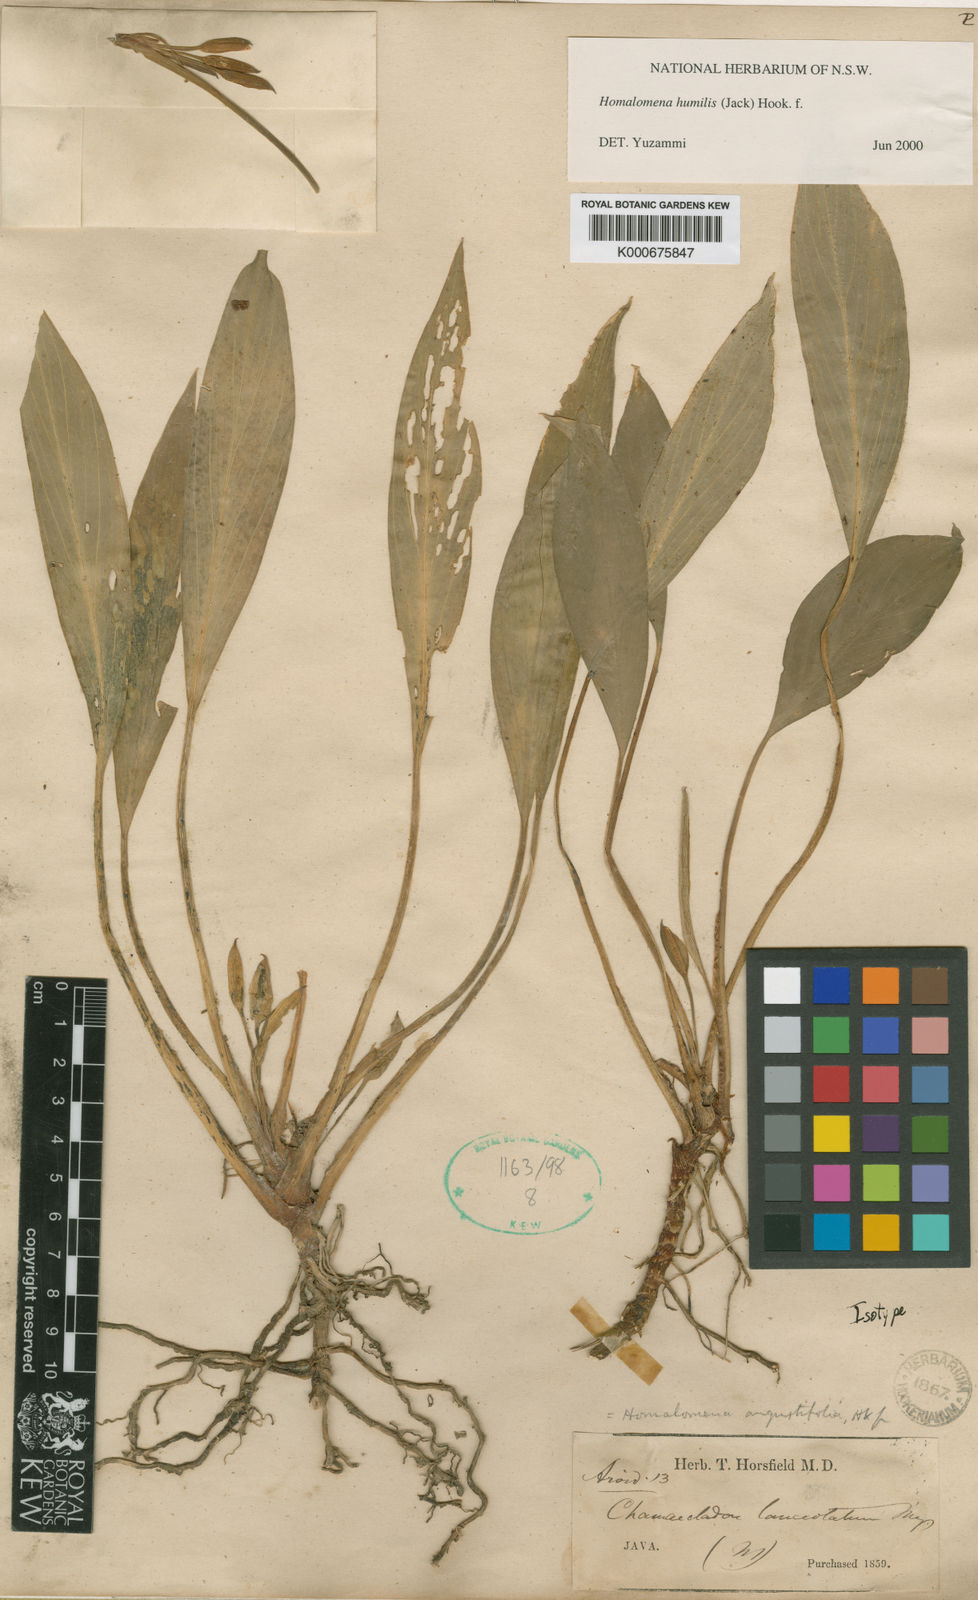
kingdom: Plantae
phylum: Tracheophyta
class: Liliopsida
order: Alismatales
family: Araceae
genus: Homalomena
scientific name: Homalomena humilis
